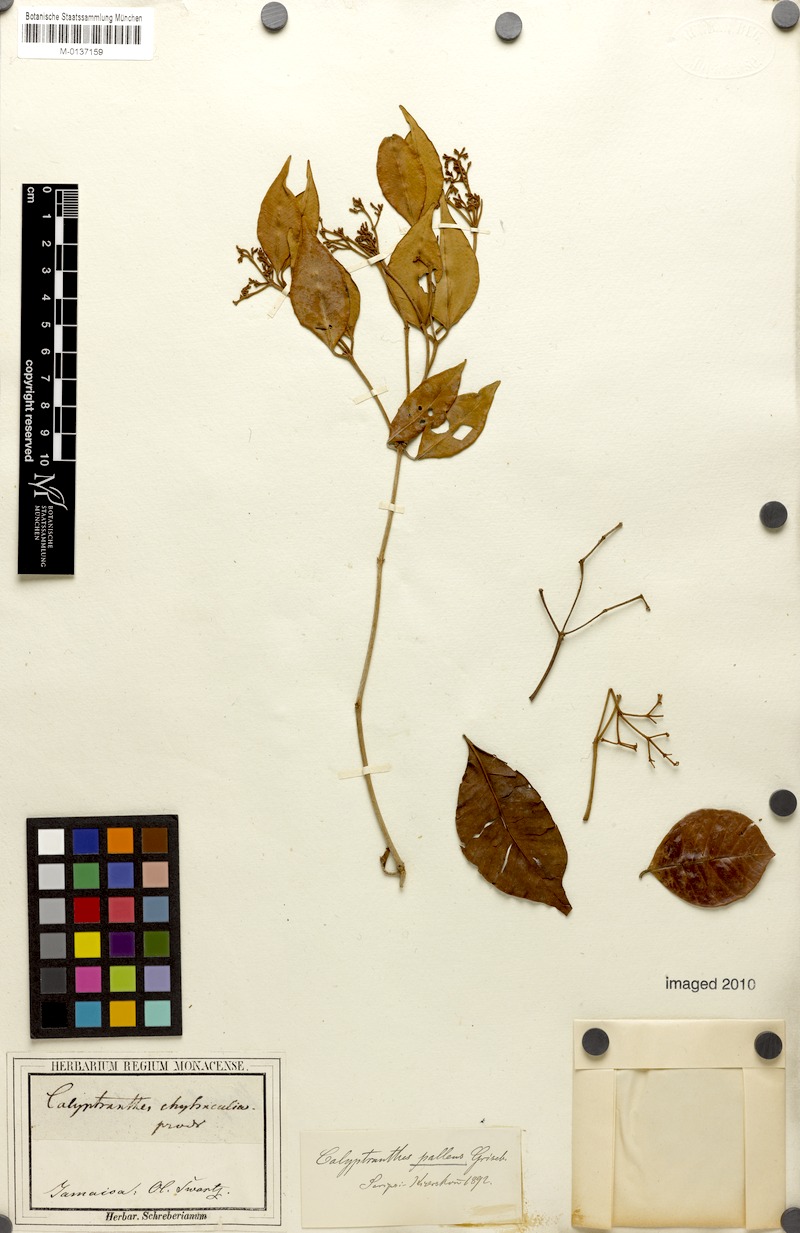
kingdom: Plantae
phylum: Tracheophyta
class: Magnoliopsida
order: Myrtales
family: Myrtaceae
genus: Myrcia
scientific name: Myrcia chytraculia
